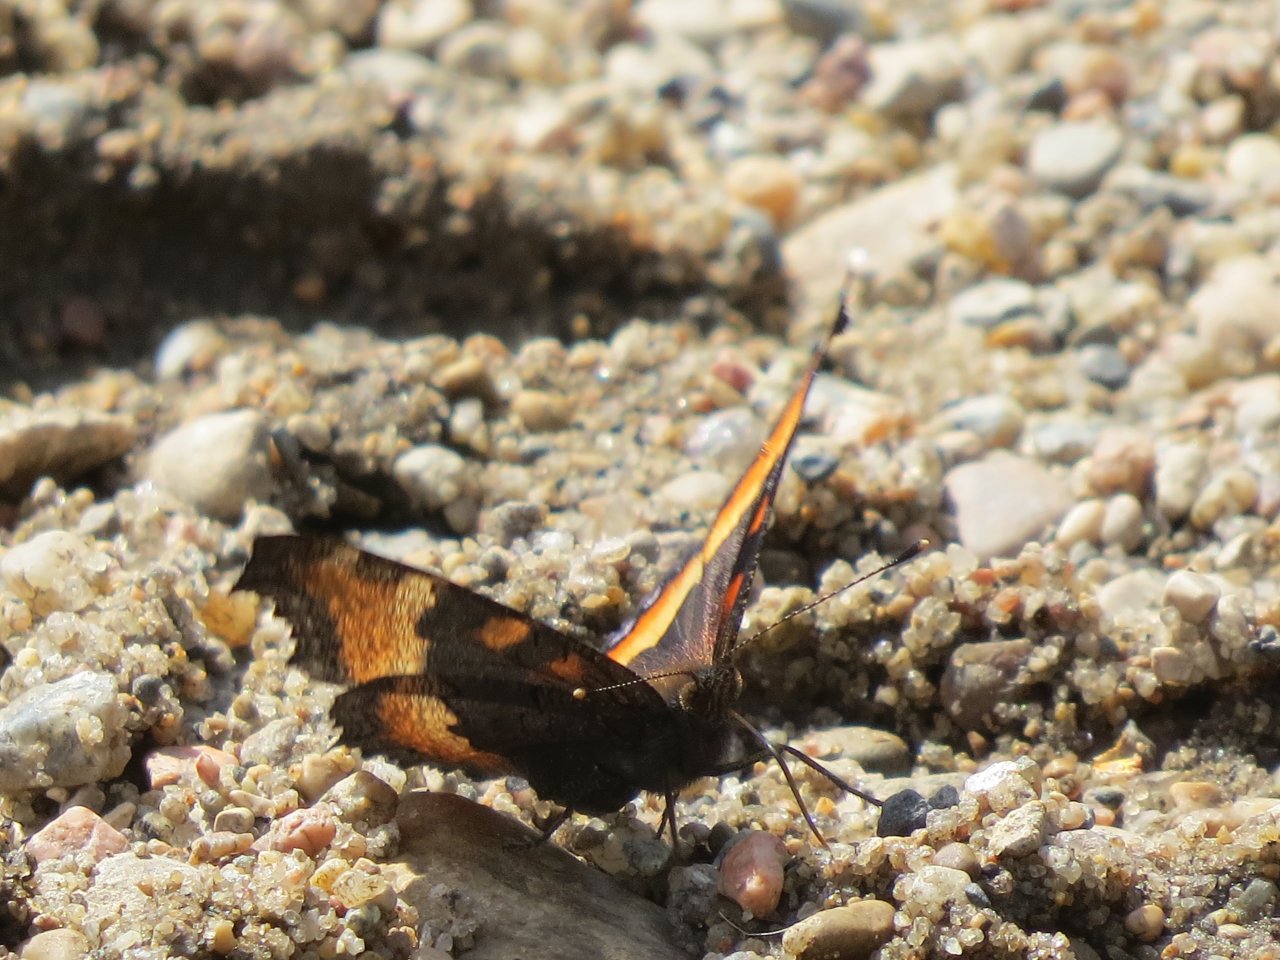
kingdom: Animalia
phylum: Arthropoda
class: Insecta
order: Lepidoptera
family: Nymphalidae
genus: Aglais
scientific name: Aglais milberti
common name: Milbert's Tortoiseshell
